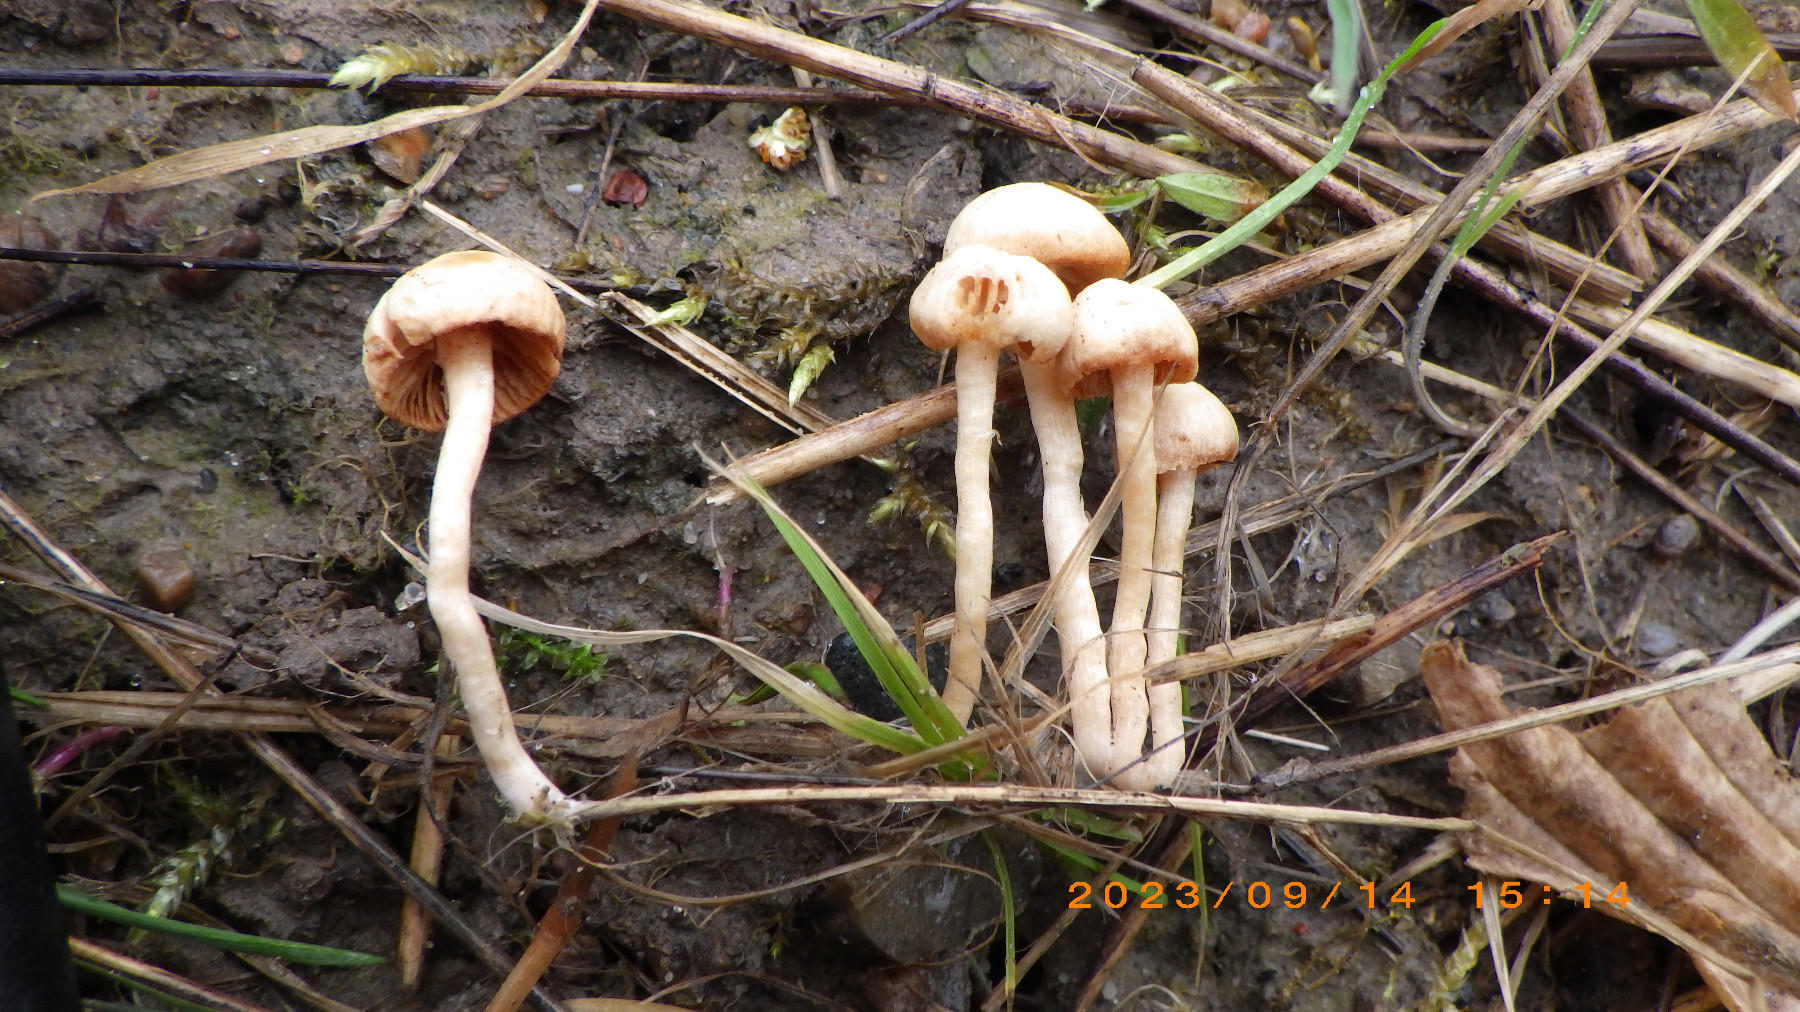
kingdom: Fungi
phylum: Basidiomycota
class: Agaricomycetes
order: Agaricales
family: Tubariaceae
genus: Tubaria
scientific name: Tubaria furfuracea
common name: kliddet fnughat
